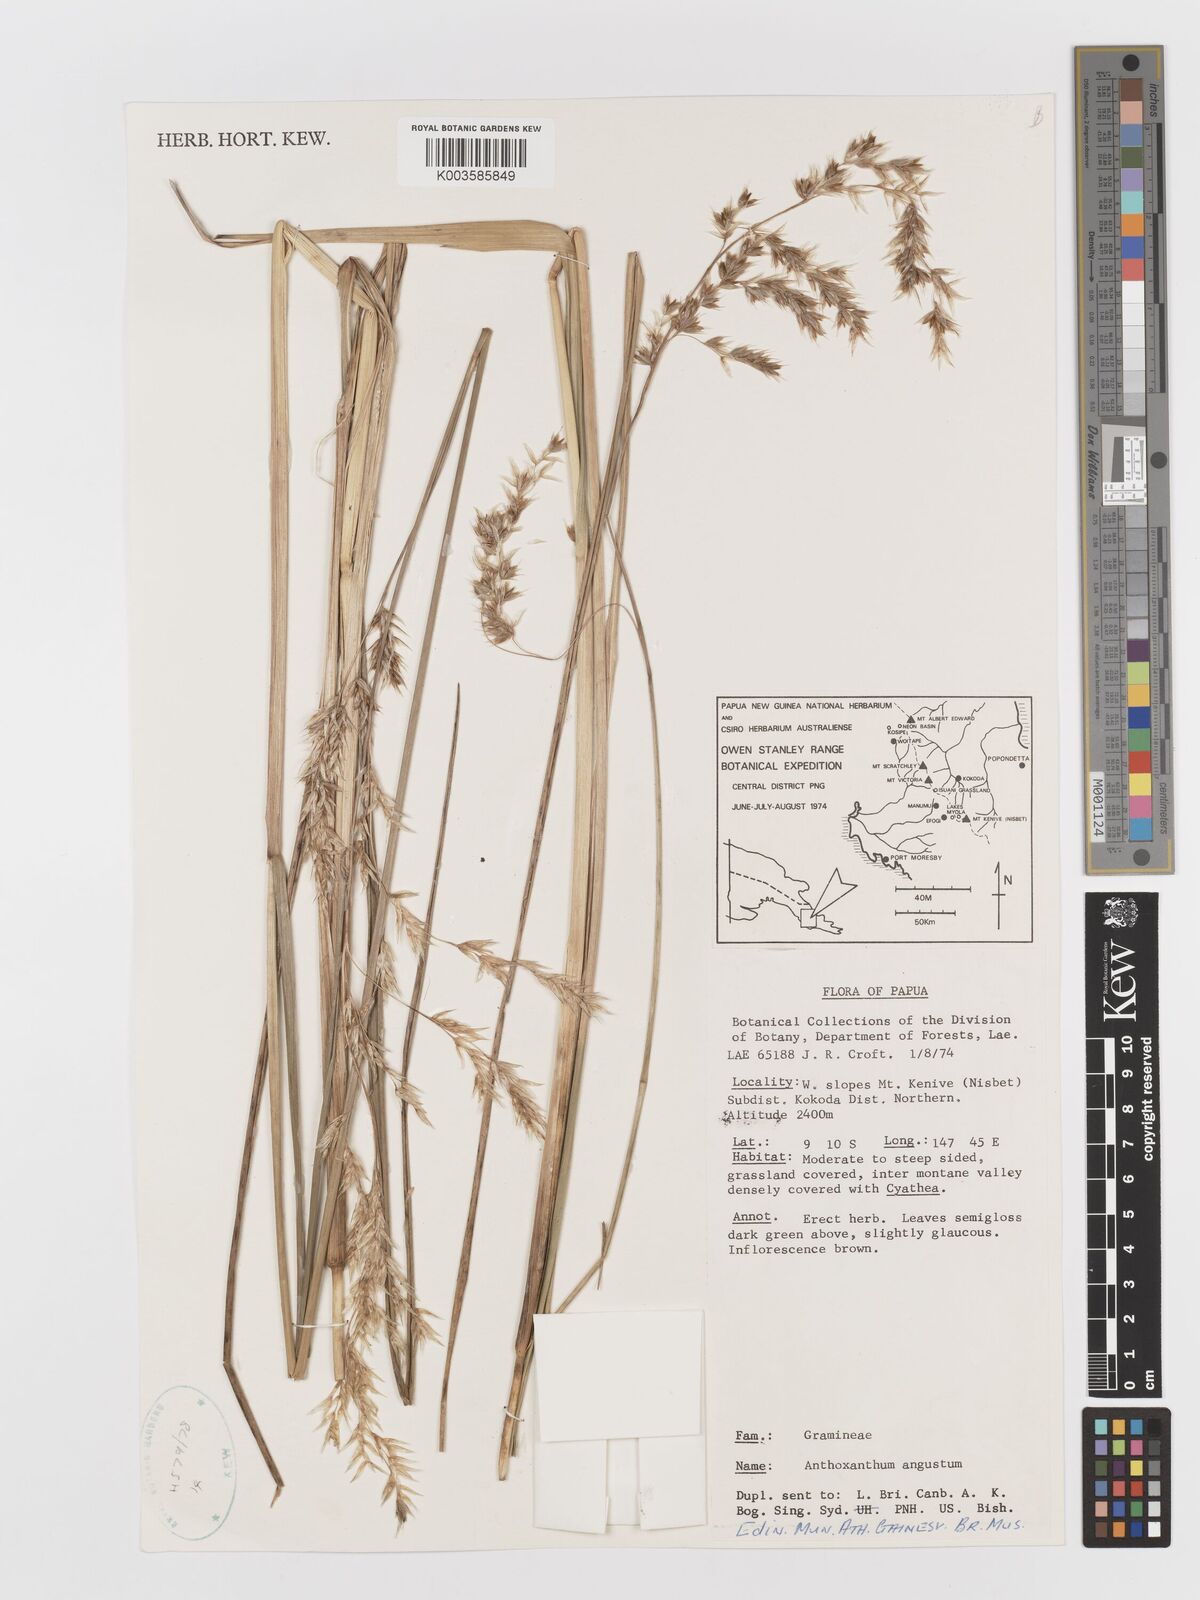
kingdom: Plantae
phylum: Tracheophyta
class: Liliopsida
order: Poales
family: Poaceae
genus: Anthoxanthum
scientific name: Anthoxanthum redolens
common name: Sweet holy grass
